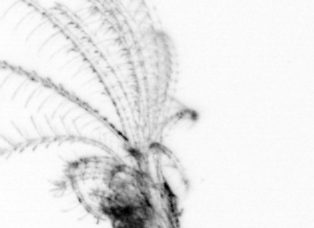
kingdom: Animalia
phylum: Arthropoda
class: Maxillopoda
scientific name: Maxillopoda
